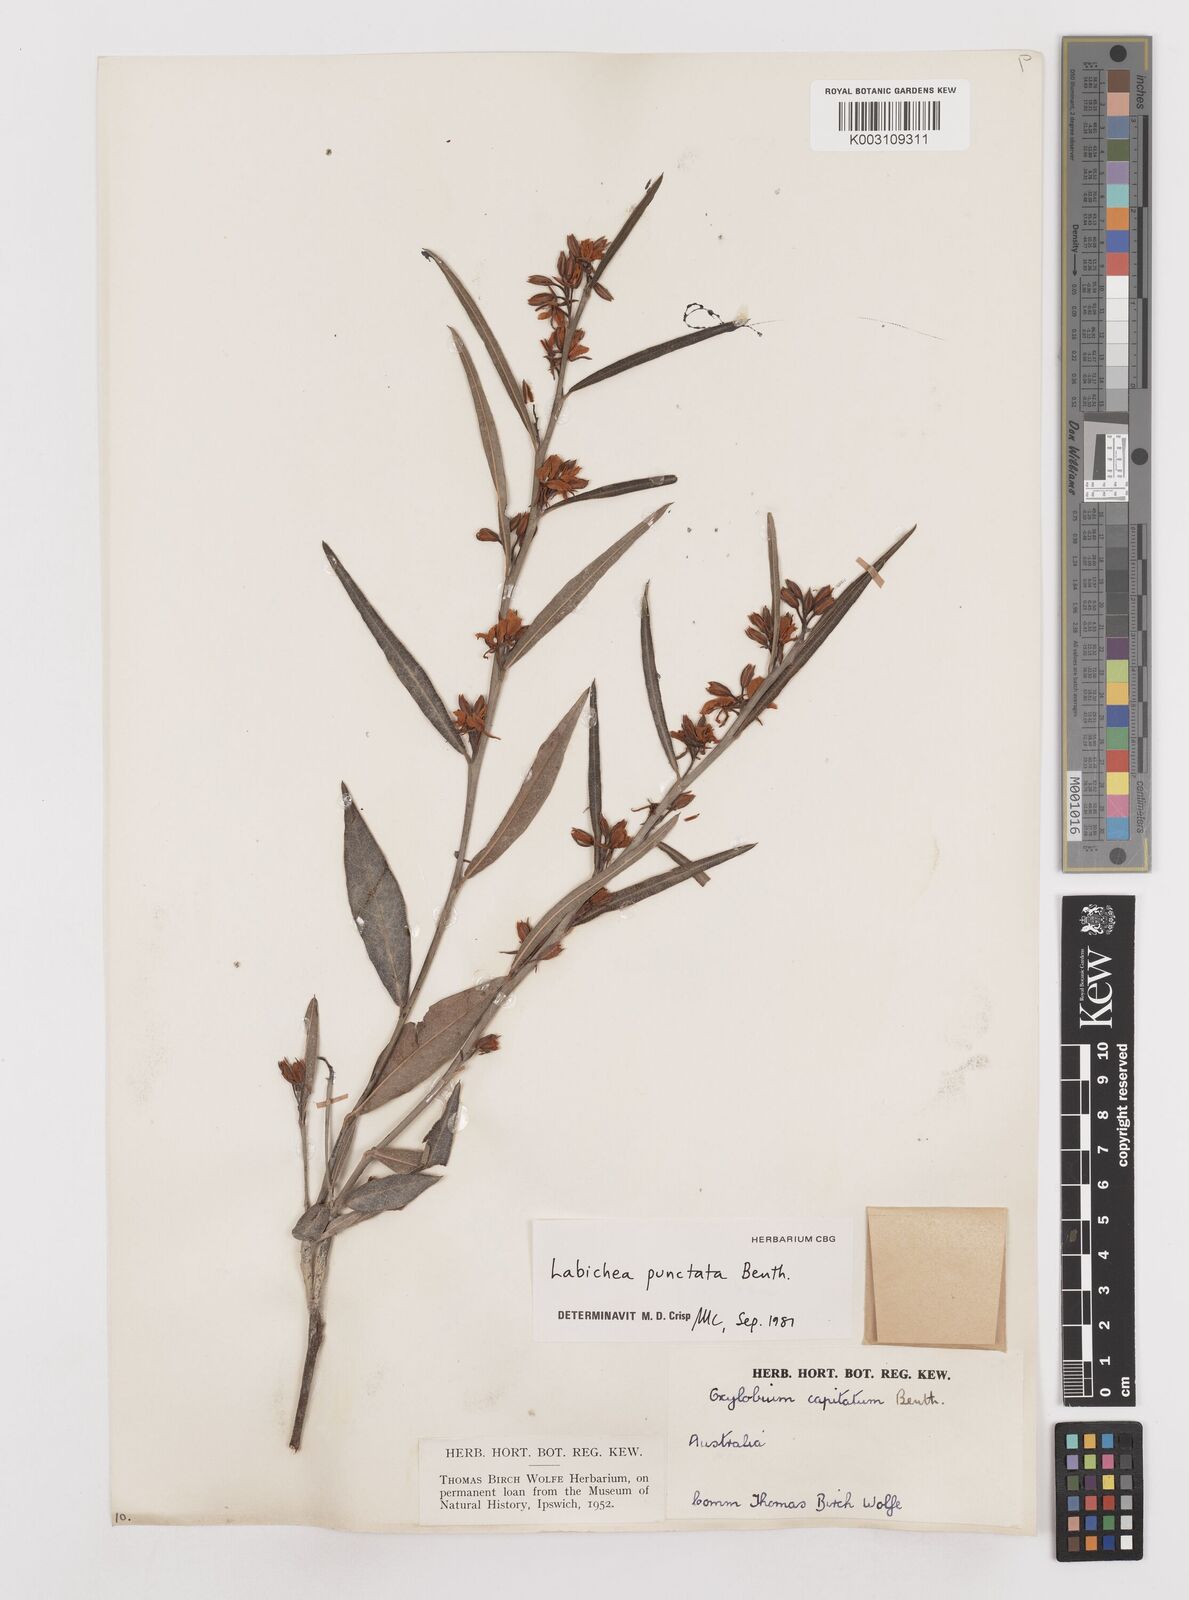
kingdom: Plantae
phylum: Tracheophyta
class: Magnoliopsida
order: Fabales
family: Fabaceae
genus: Labichea
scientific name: Labichea punctata
